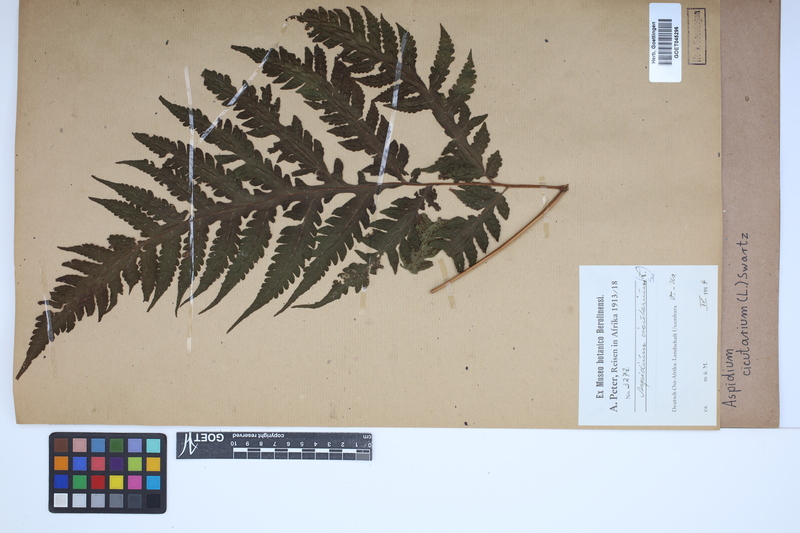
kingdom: Plantae
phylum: Tracheophyta
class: Polypodiopsida
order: Polypodiales
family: Tectariaceae
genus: Tectaria
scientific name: Tectaria cicutaria
